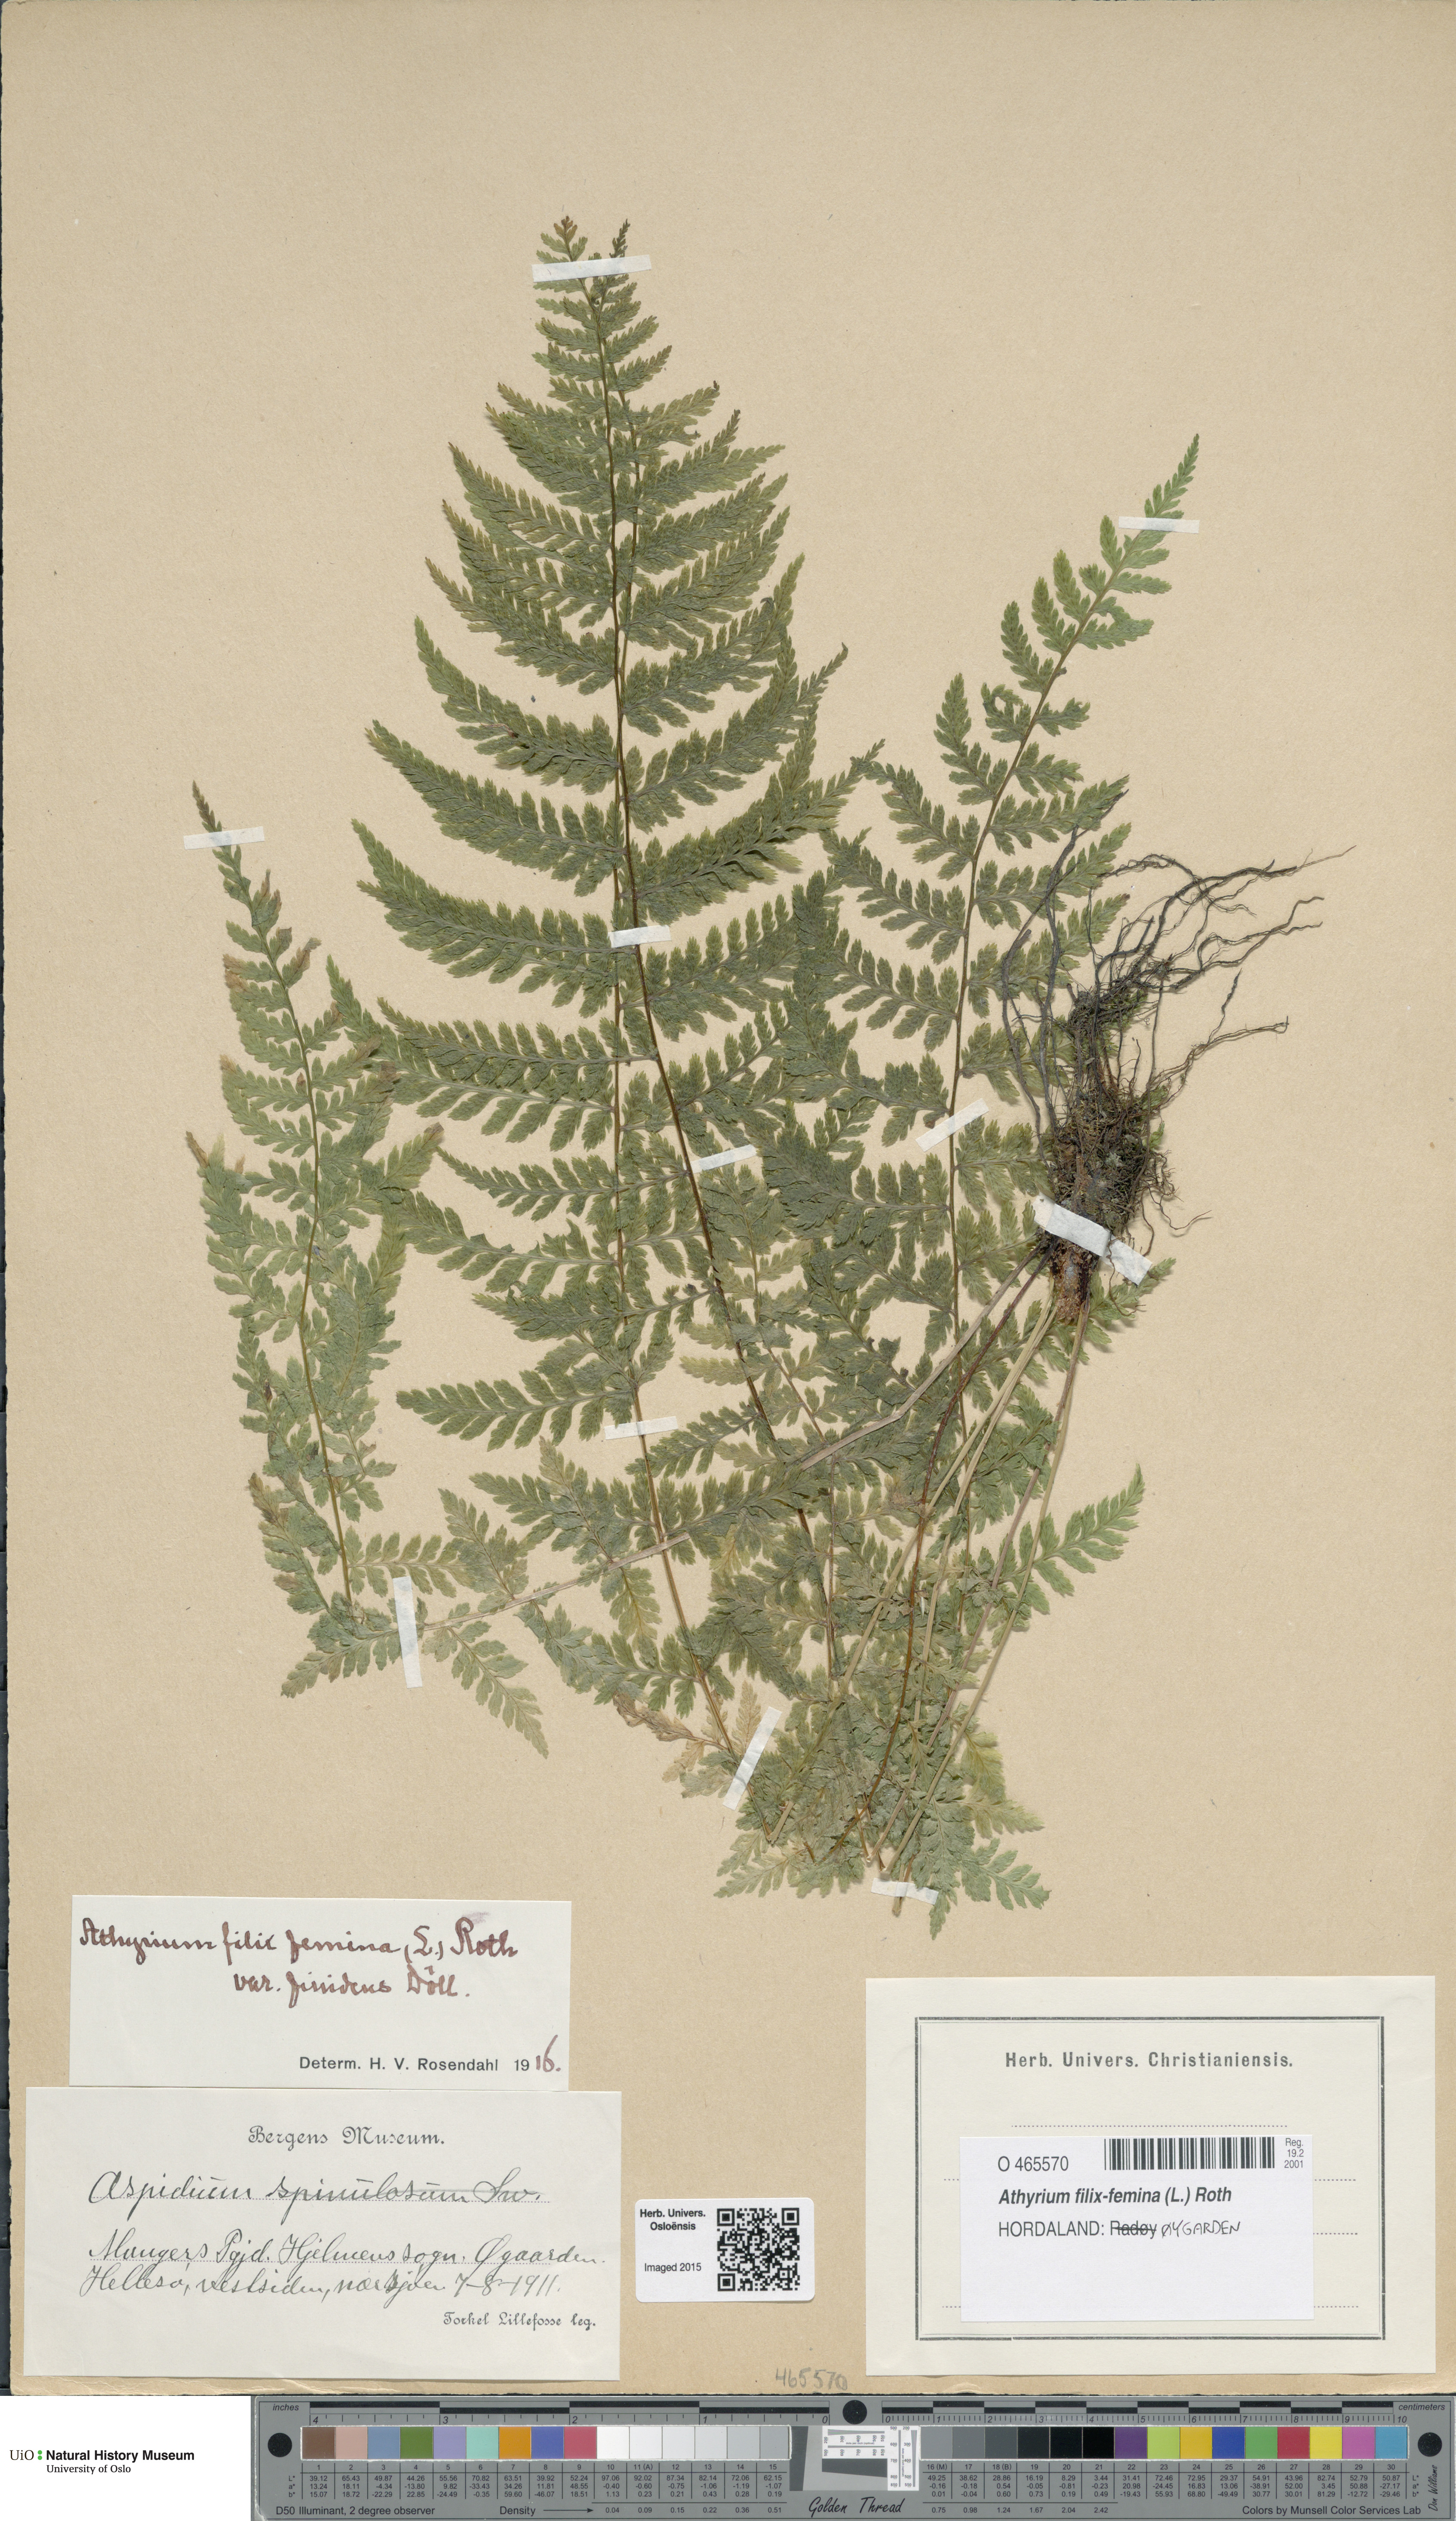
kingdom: Plantae
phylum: Tracheophyta
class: Polypodiopsida
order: Polypodiales
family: Athyriaceae
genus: Athyrium
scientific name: Athyrium filix-femina
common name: Lady fern
